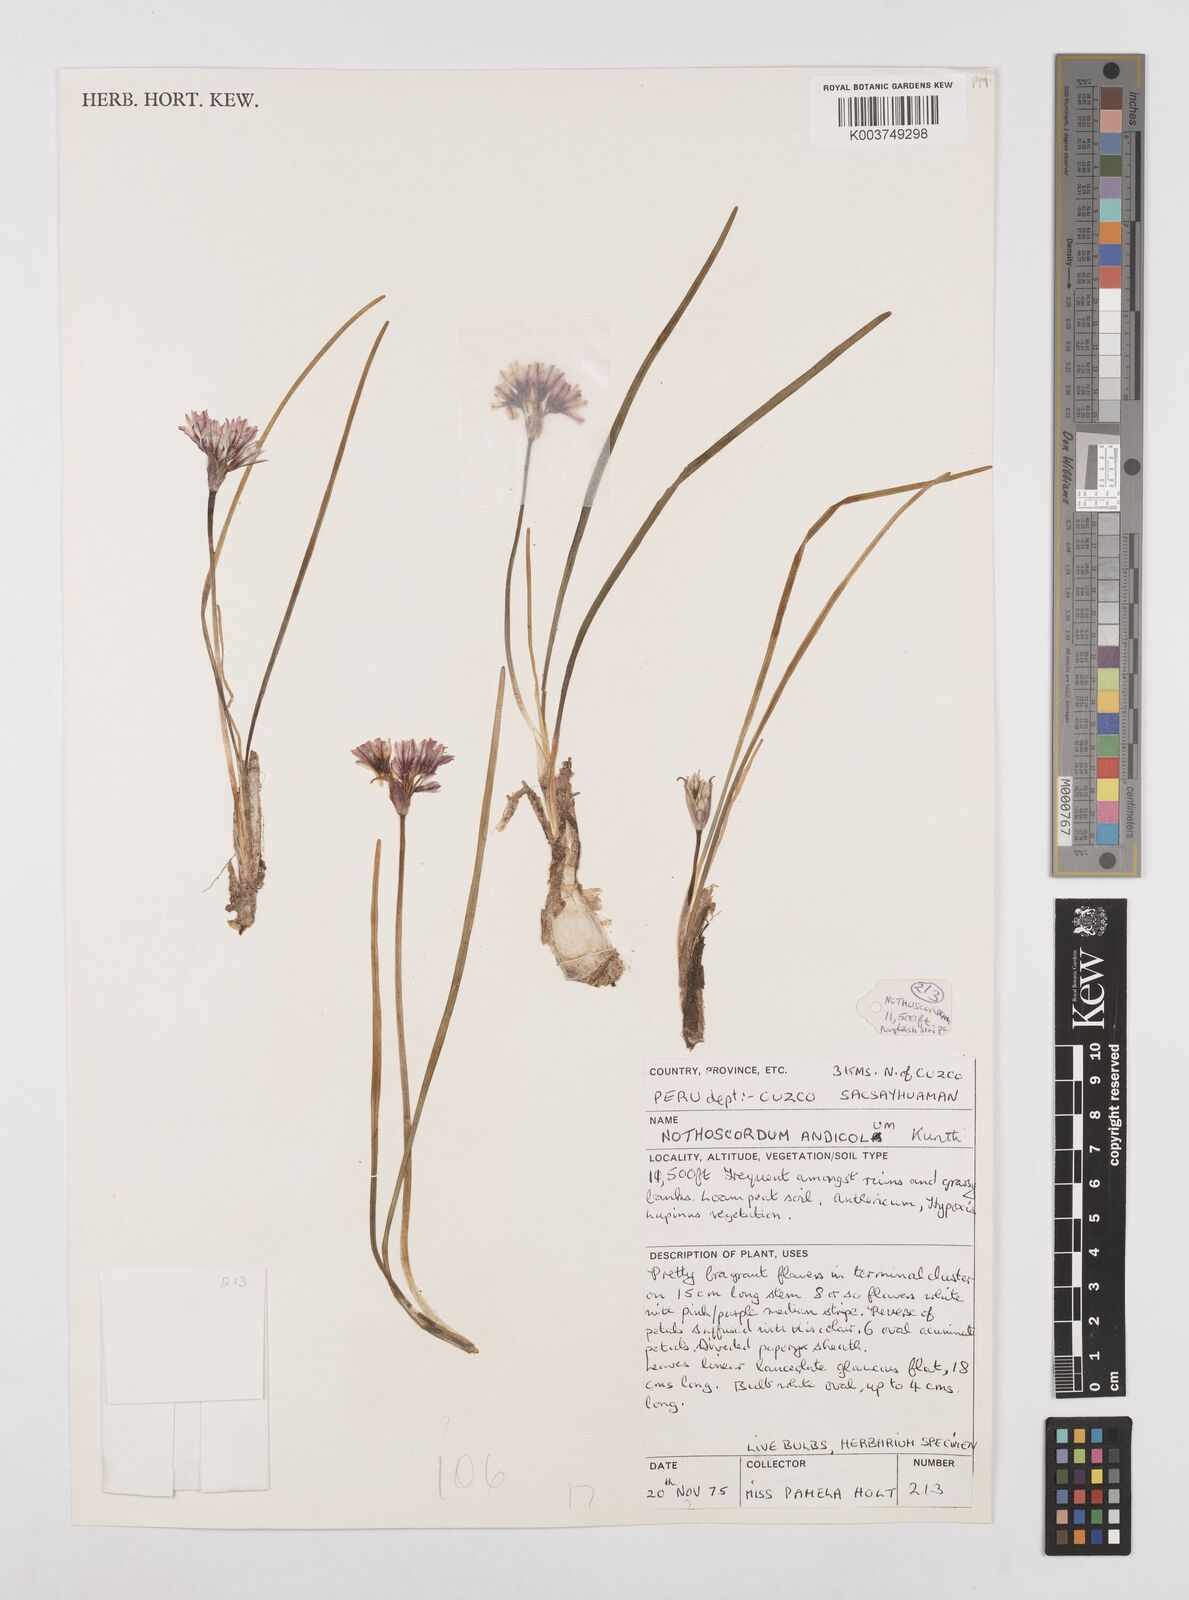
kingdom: Plantae
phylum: Tracheophyta
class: Liliopsida
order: Asparagales
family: Amaryllidaceae
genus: Nothoscordum
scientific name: Nothoscordum andicola
